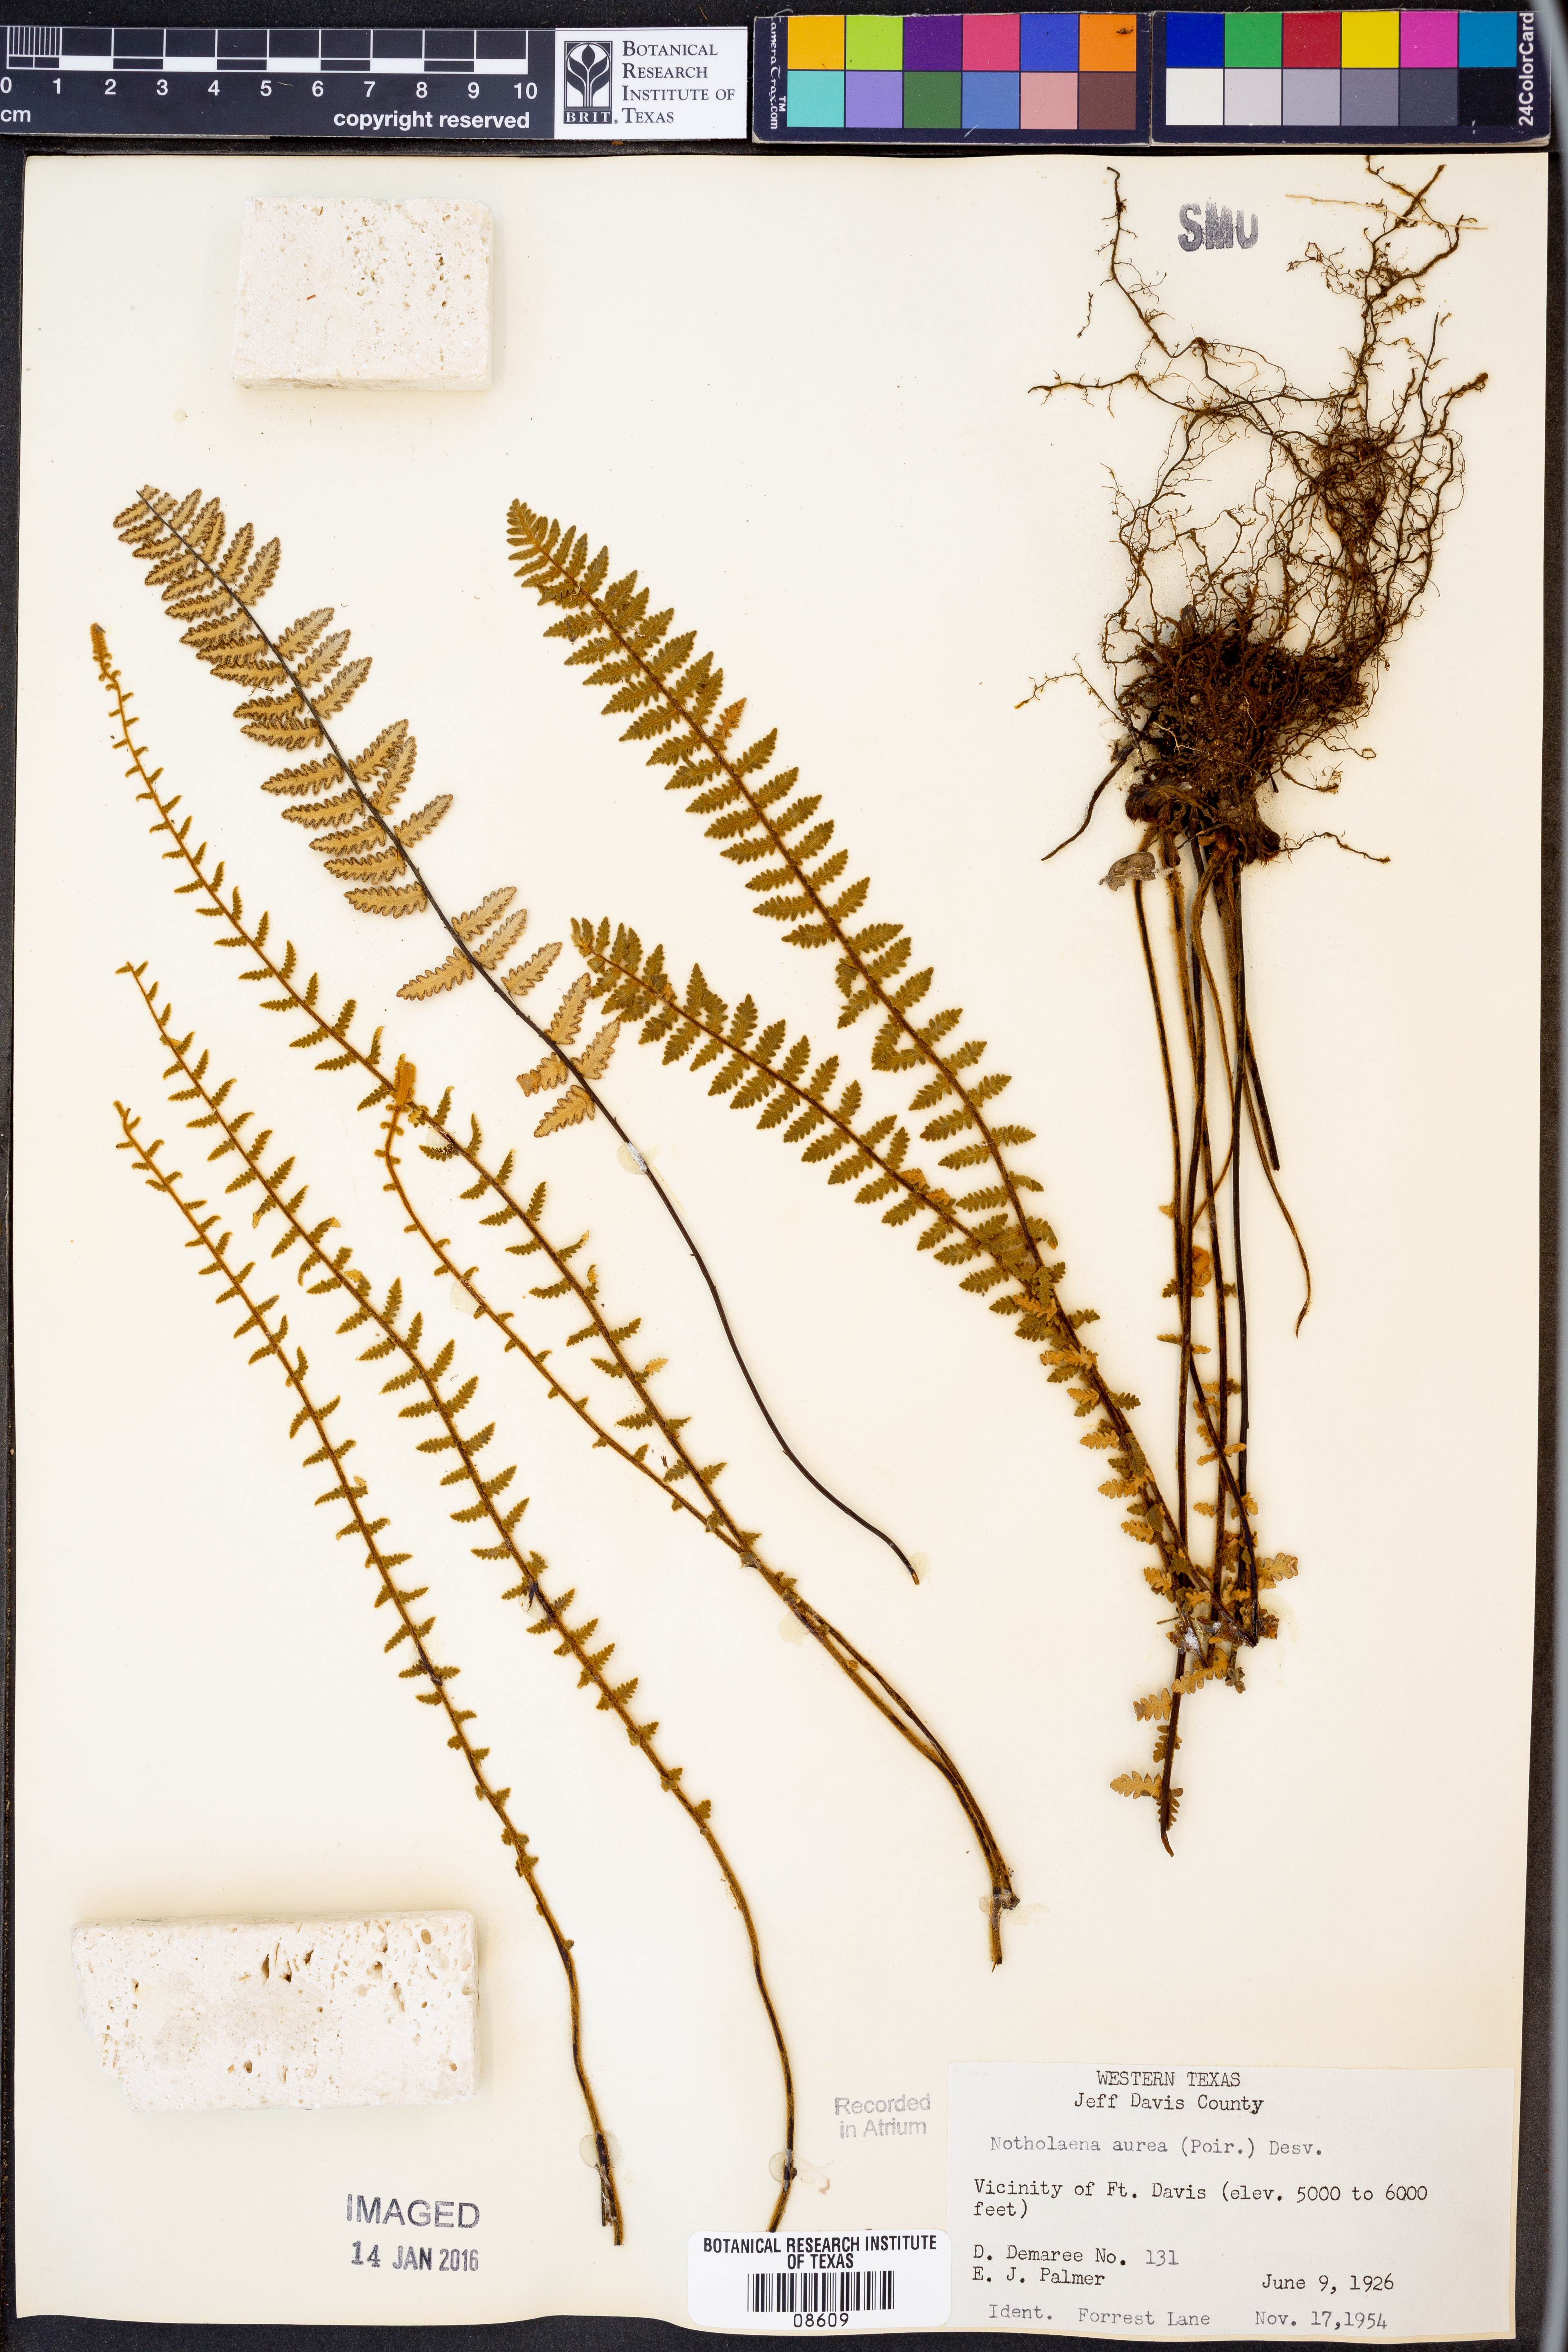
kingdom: Plantae
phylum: Tracheophyta
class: Polypodiopsida
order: Polypodiales
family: Pteridaceae
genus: Myriopteris
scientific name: Myriopteris aurea
